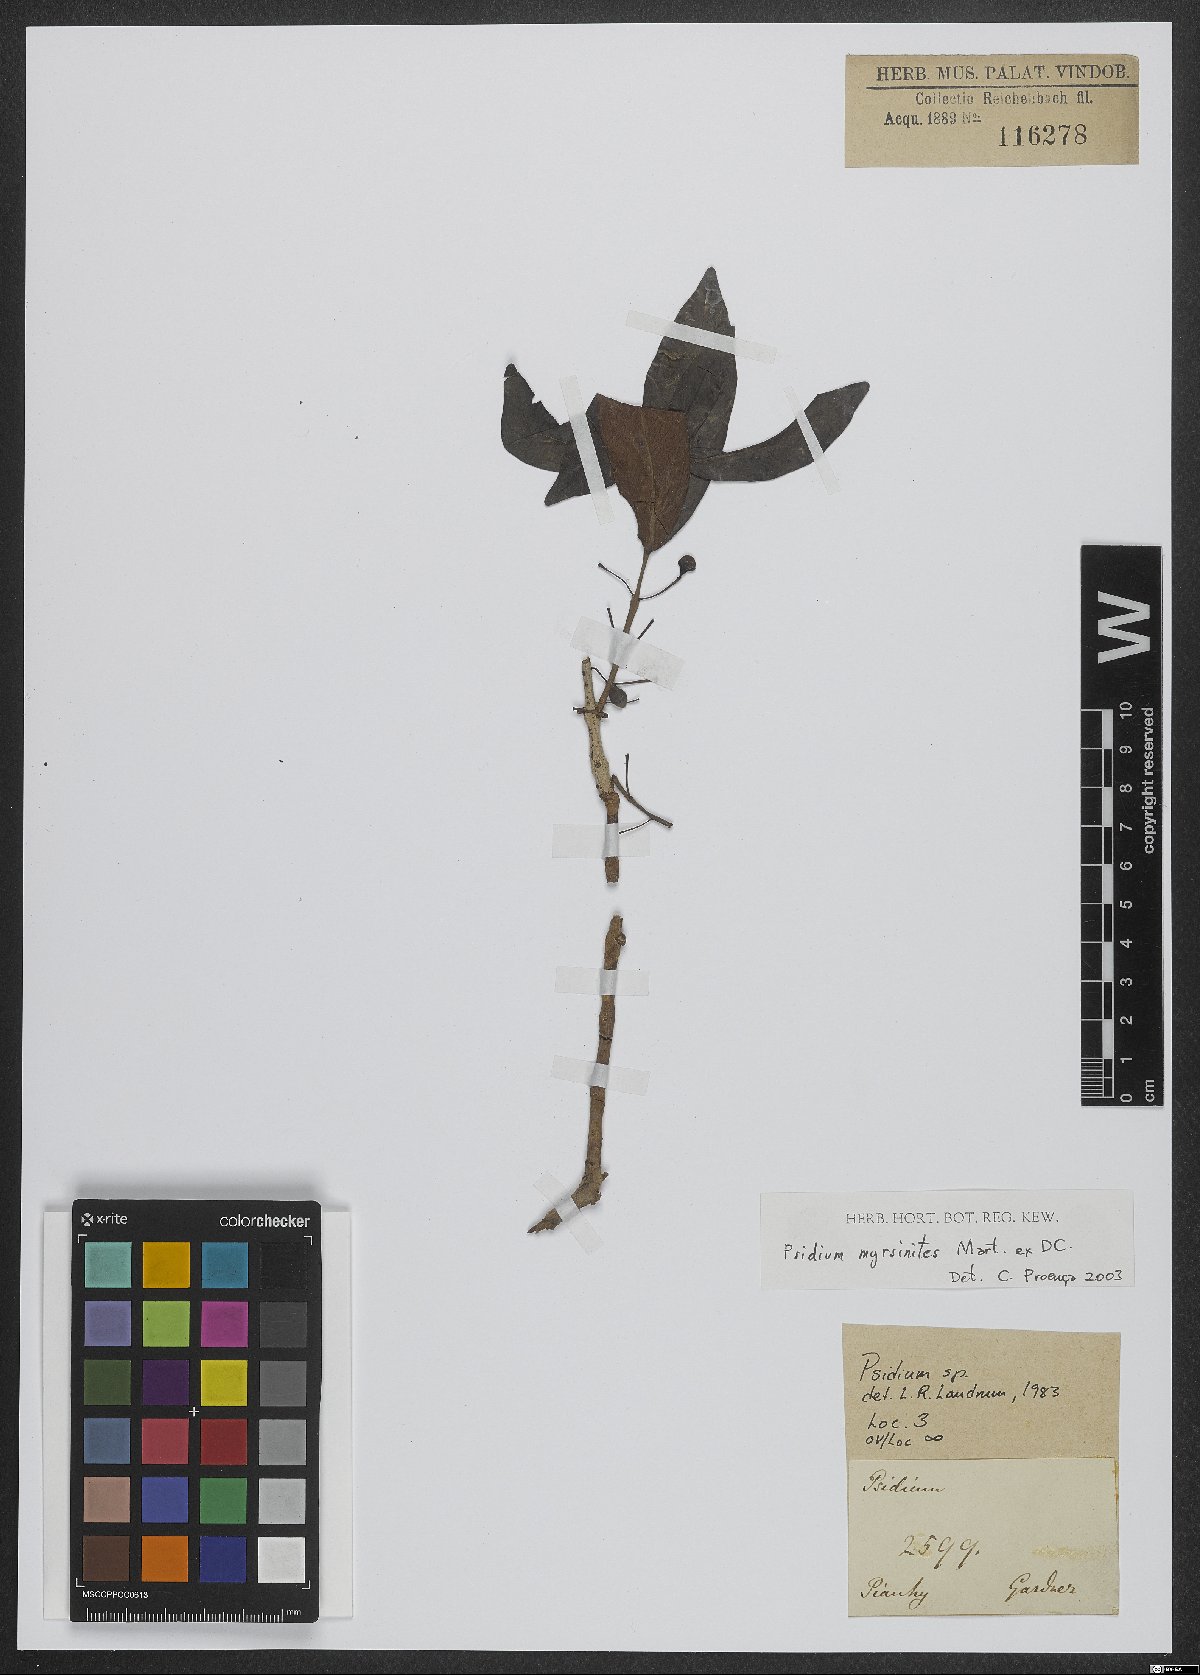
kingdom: Plantae
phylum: Tracheophyta
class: Magnoliopsida
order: Myrtales
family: Myrtaceae
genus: Psidium
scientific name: Psidium myrsinites
